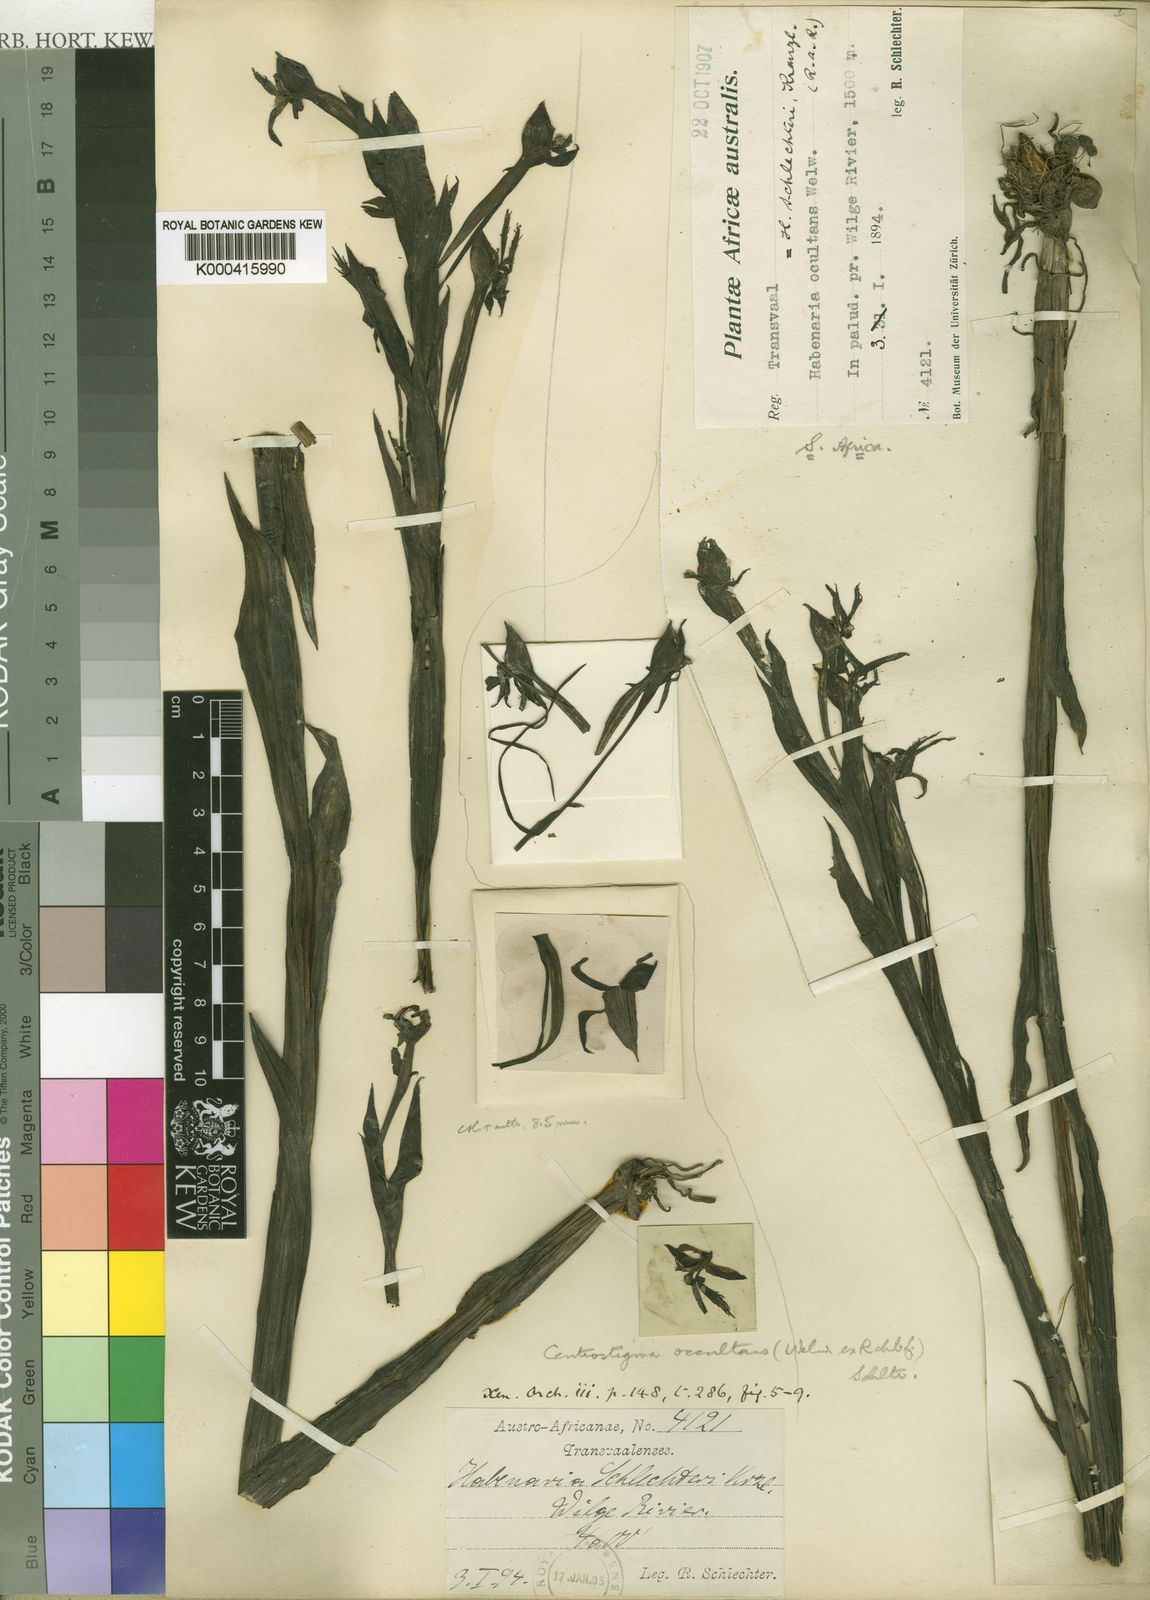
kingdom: Plantae
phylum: Tracheophyta
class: Liliopsida
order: Asparagales
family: Orchidaceae
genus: Centrostigma
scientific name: Centrostigma occultans
